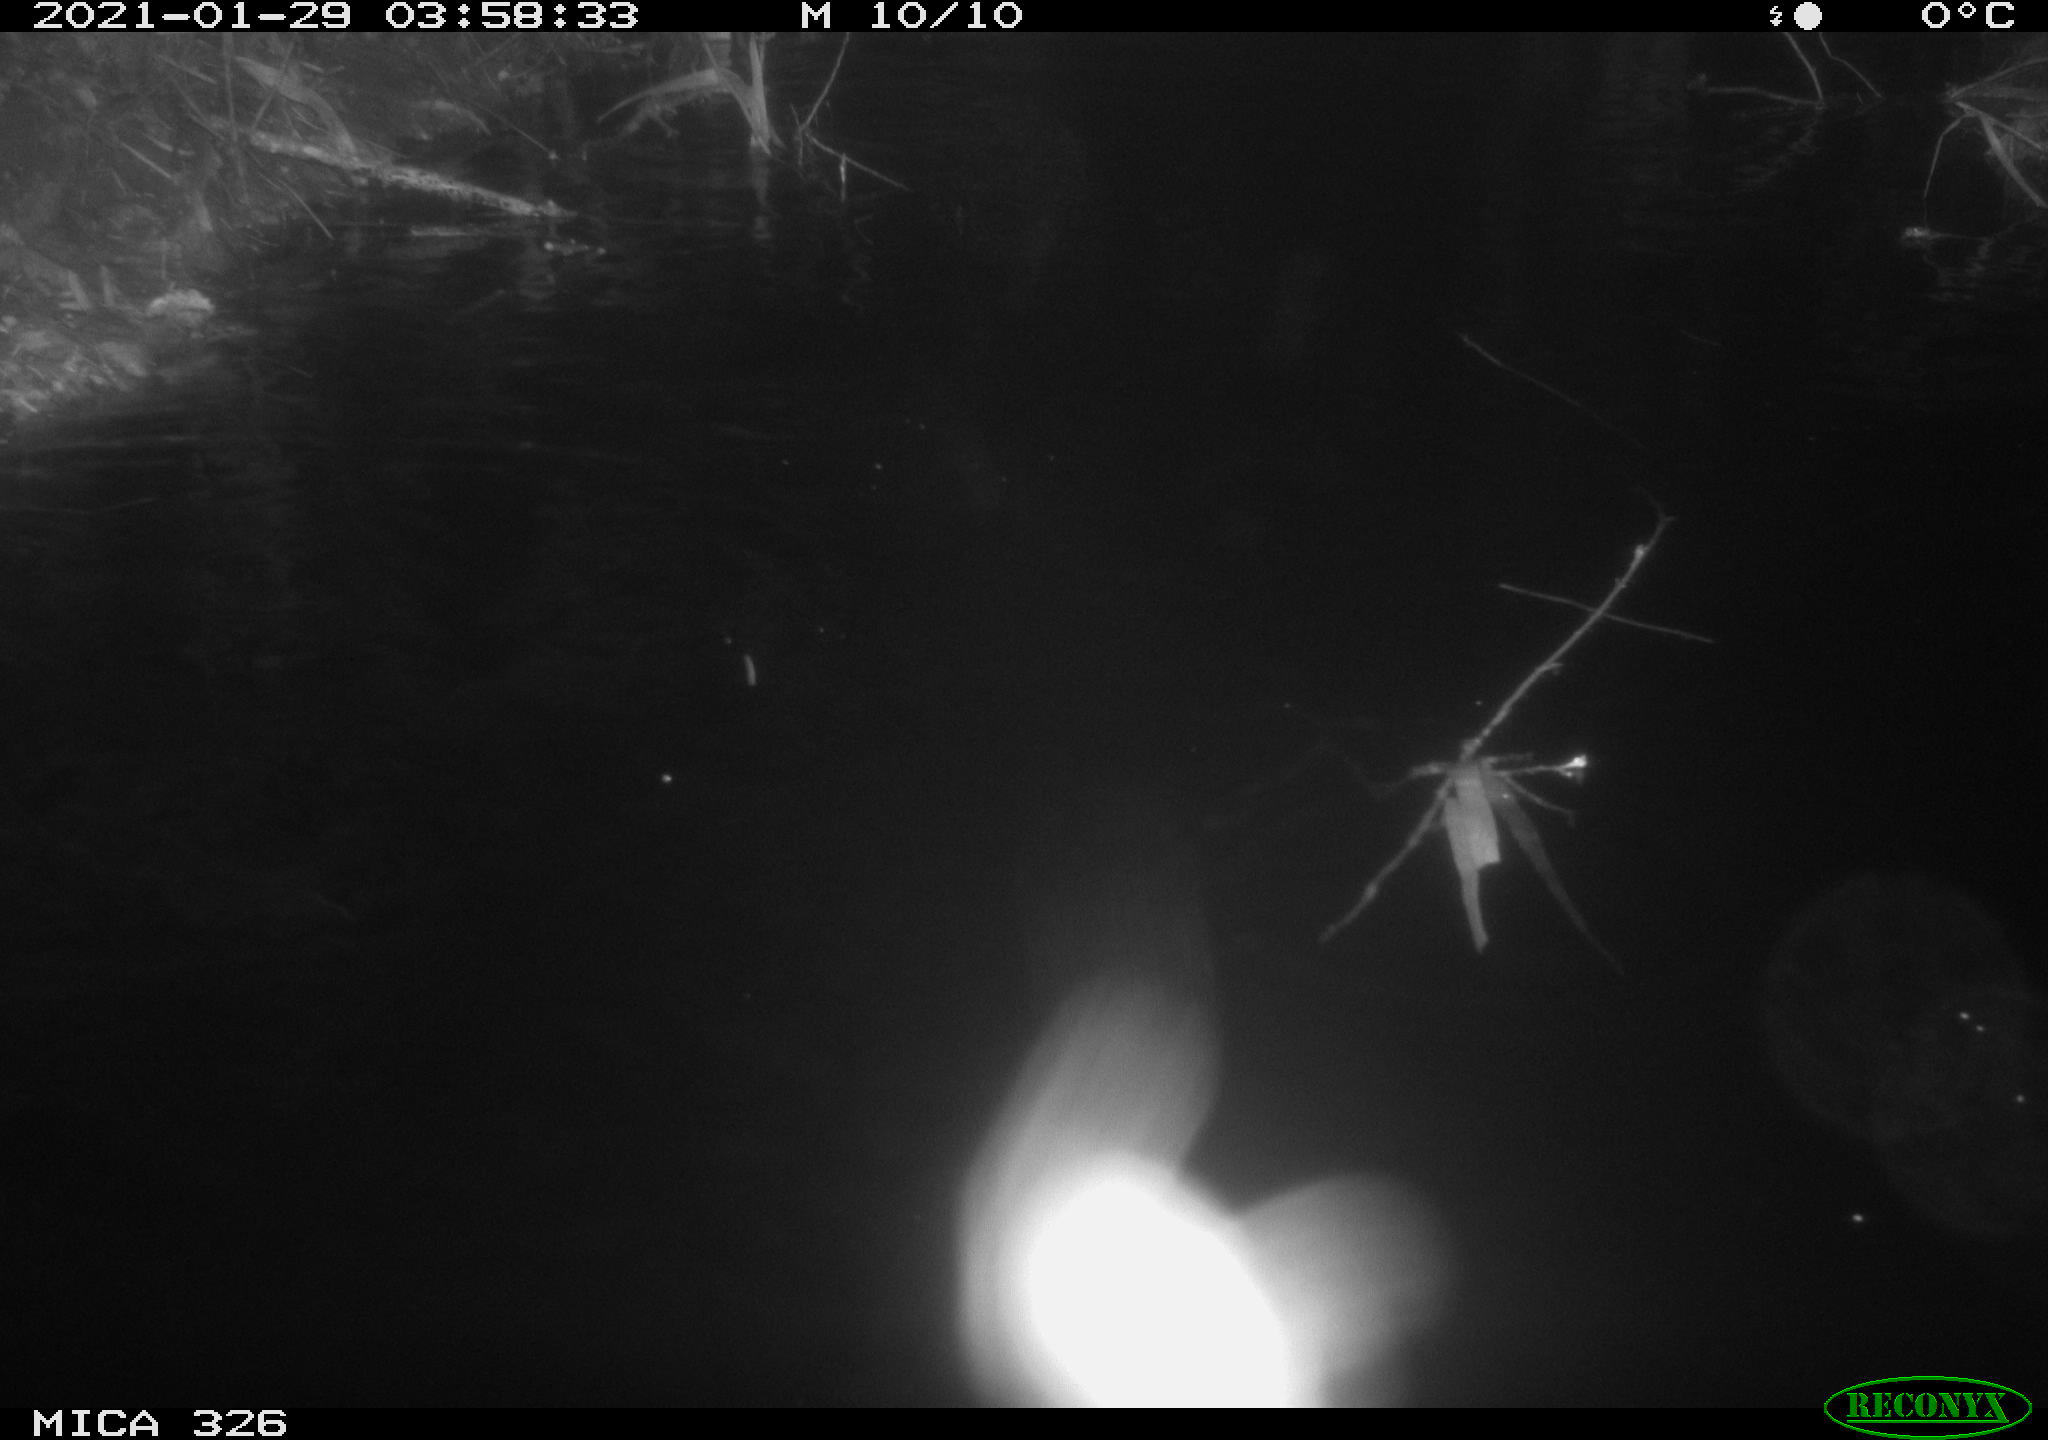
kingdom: Animalia
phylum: Chordata
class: Mammalia
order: Rodentia
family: Cricetidae
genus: Ondatra
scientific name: Ondatra zibethicus
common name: Muskrat
